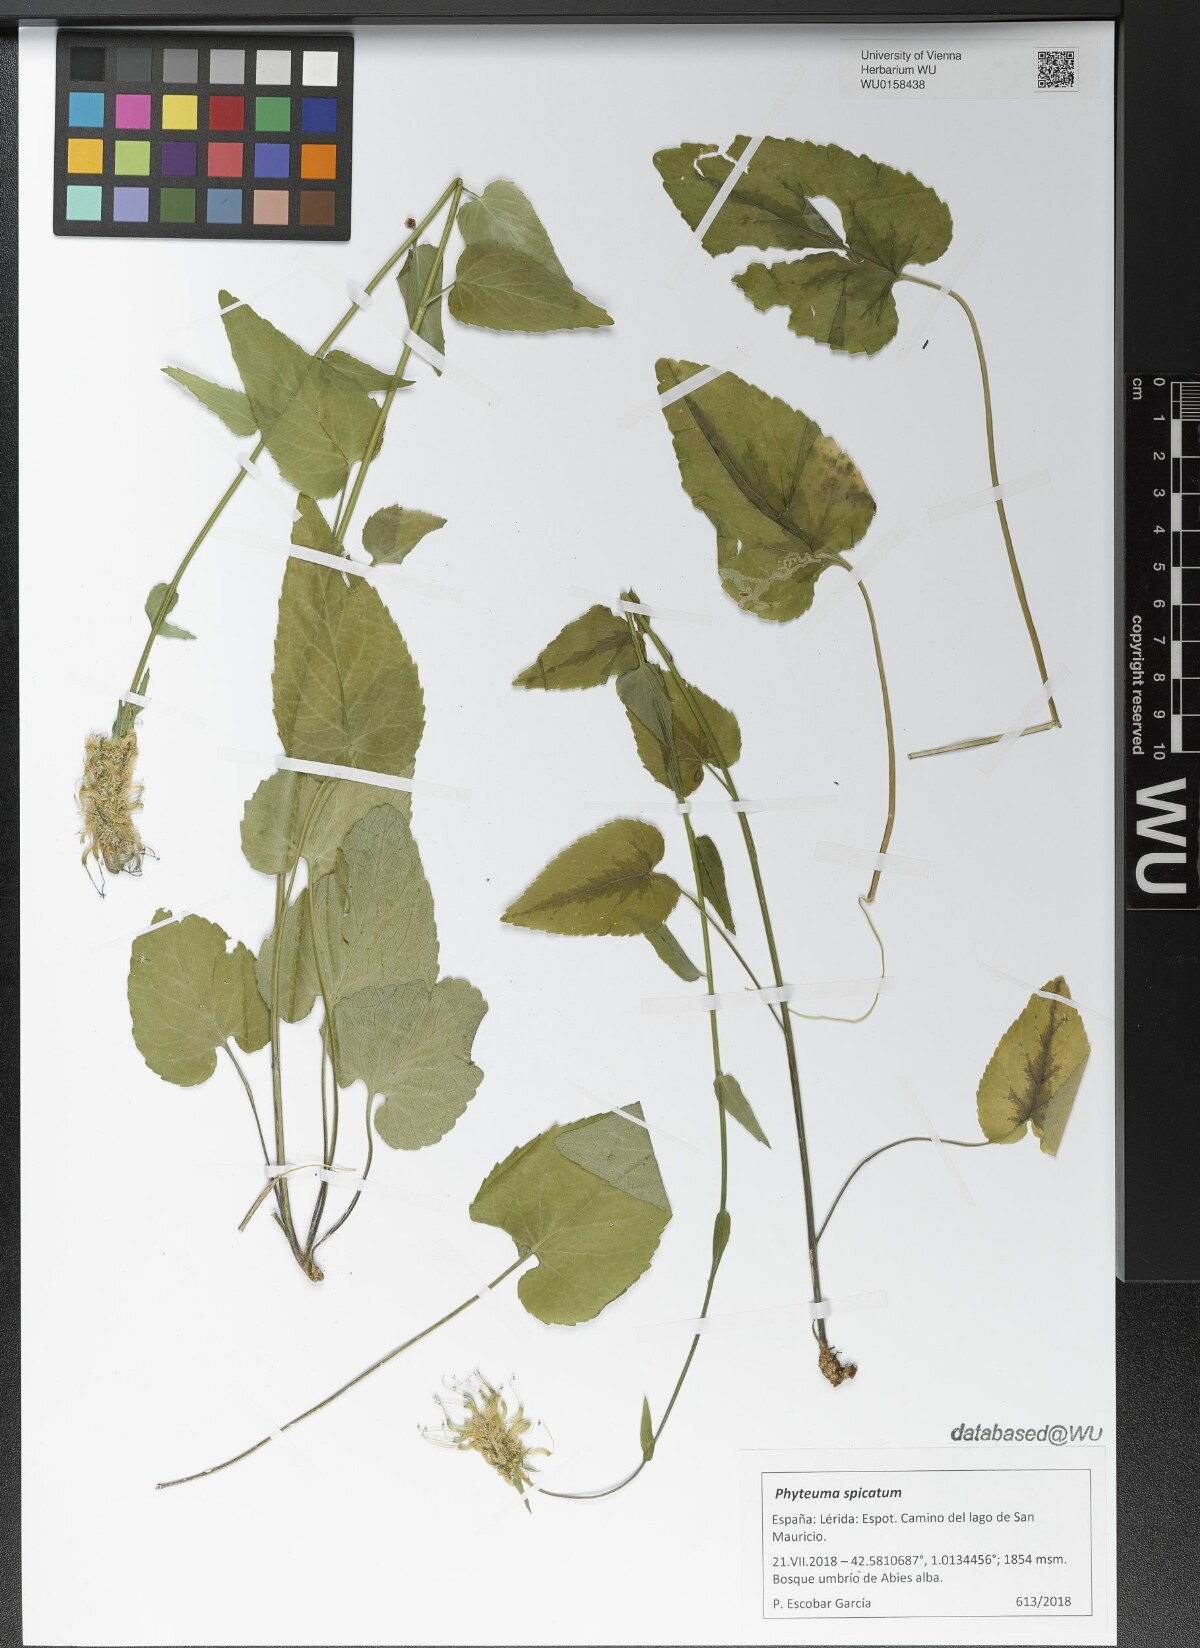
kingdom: Plantae
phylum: Tracheophyta
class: Magnoliopsida
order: Asterales
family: Campanulaceae
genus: Phyteuma
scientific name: Phyteuma spicatum
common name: Spiked rampion
